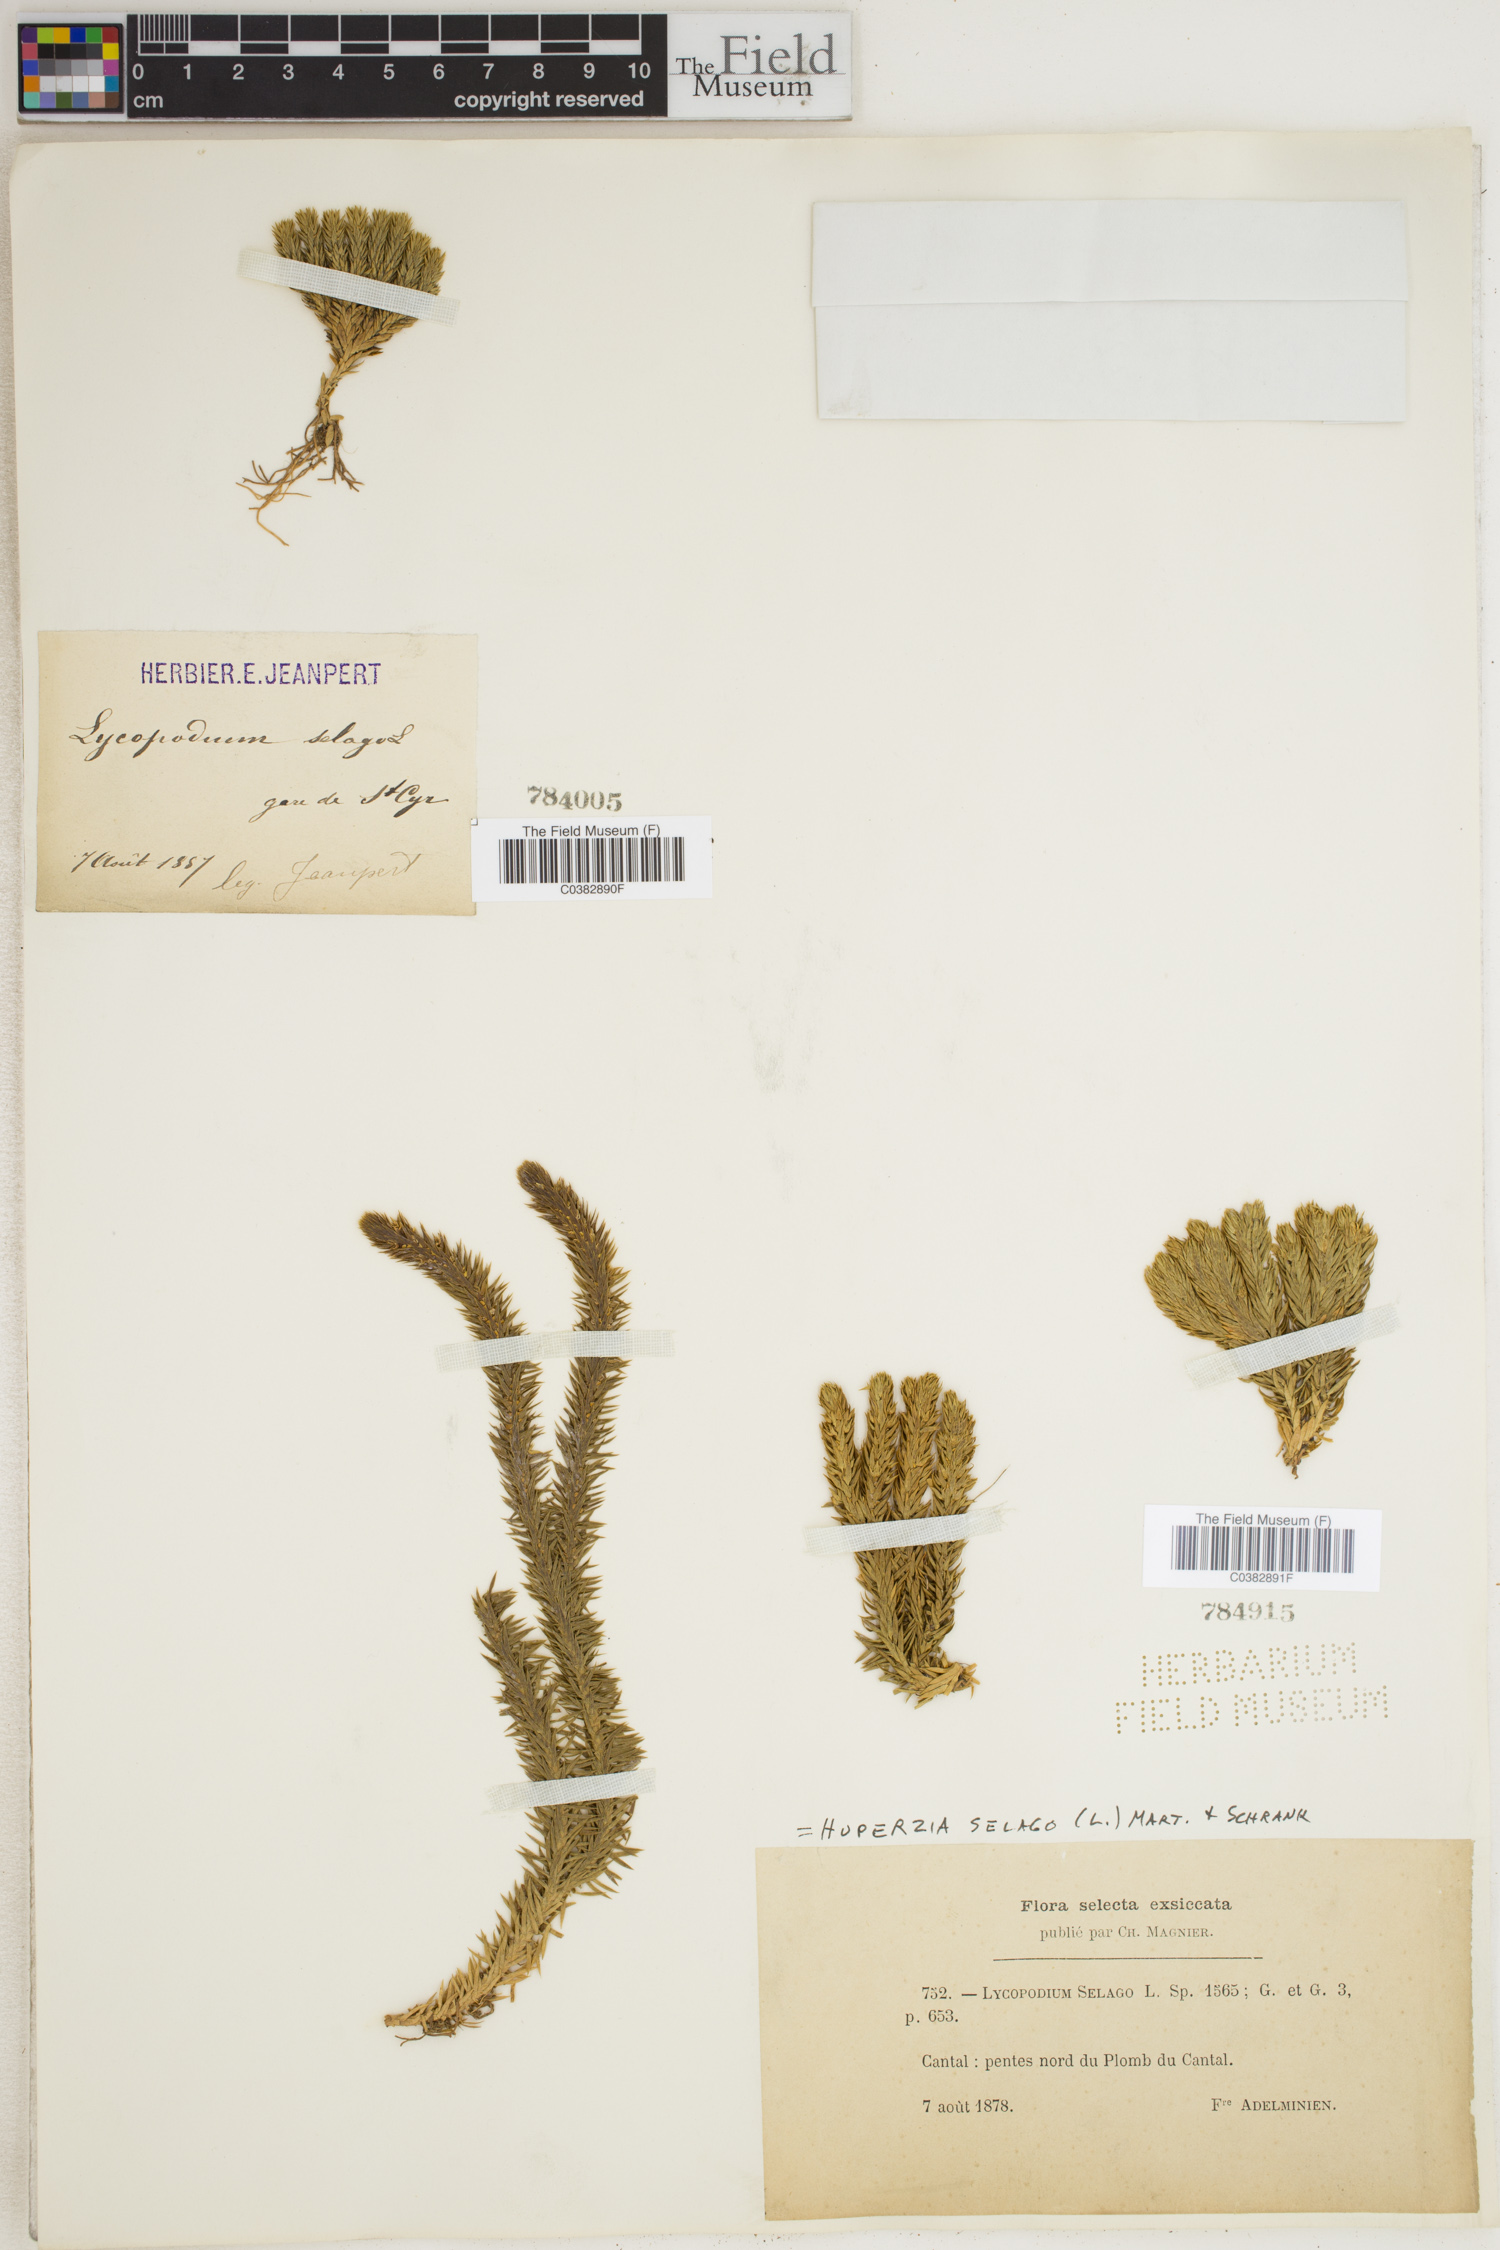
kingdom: Plantae
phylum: Tracheophyta
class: Lycopodiopsida
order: Lycopodiales
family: Lycopodiaceae
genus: Huperzia
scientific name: Huperzia selago
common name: Northern firmoss
